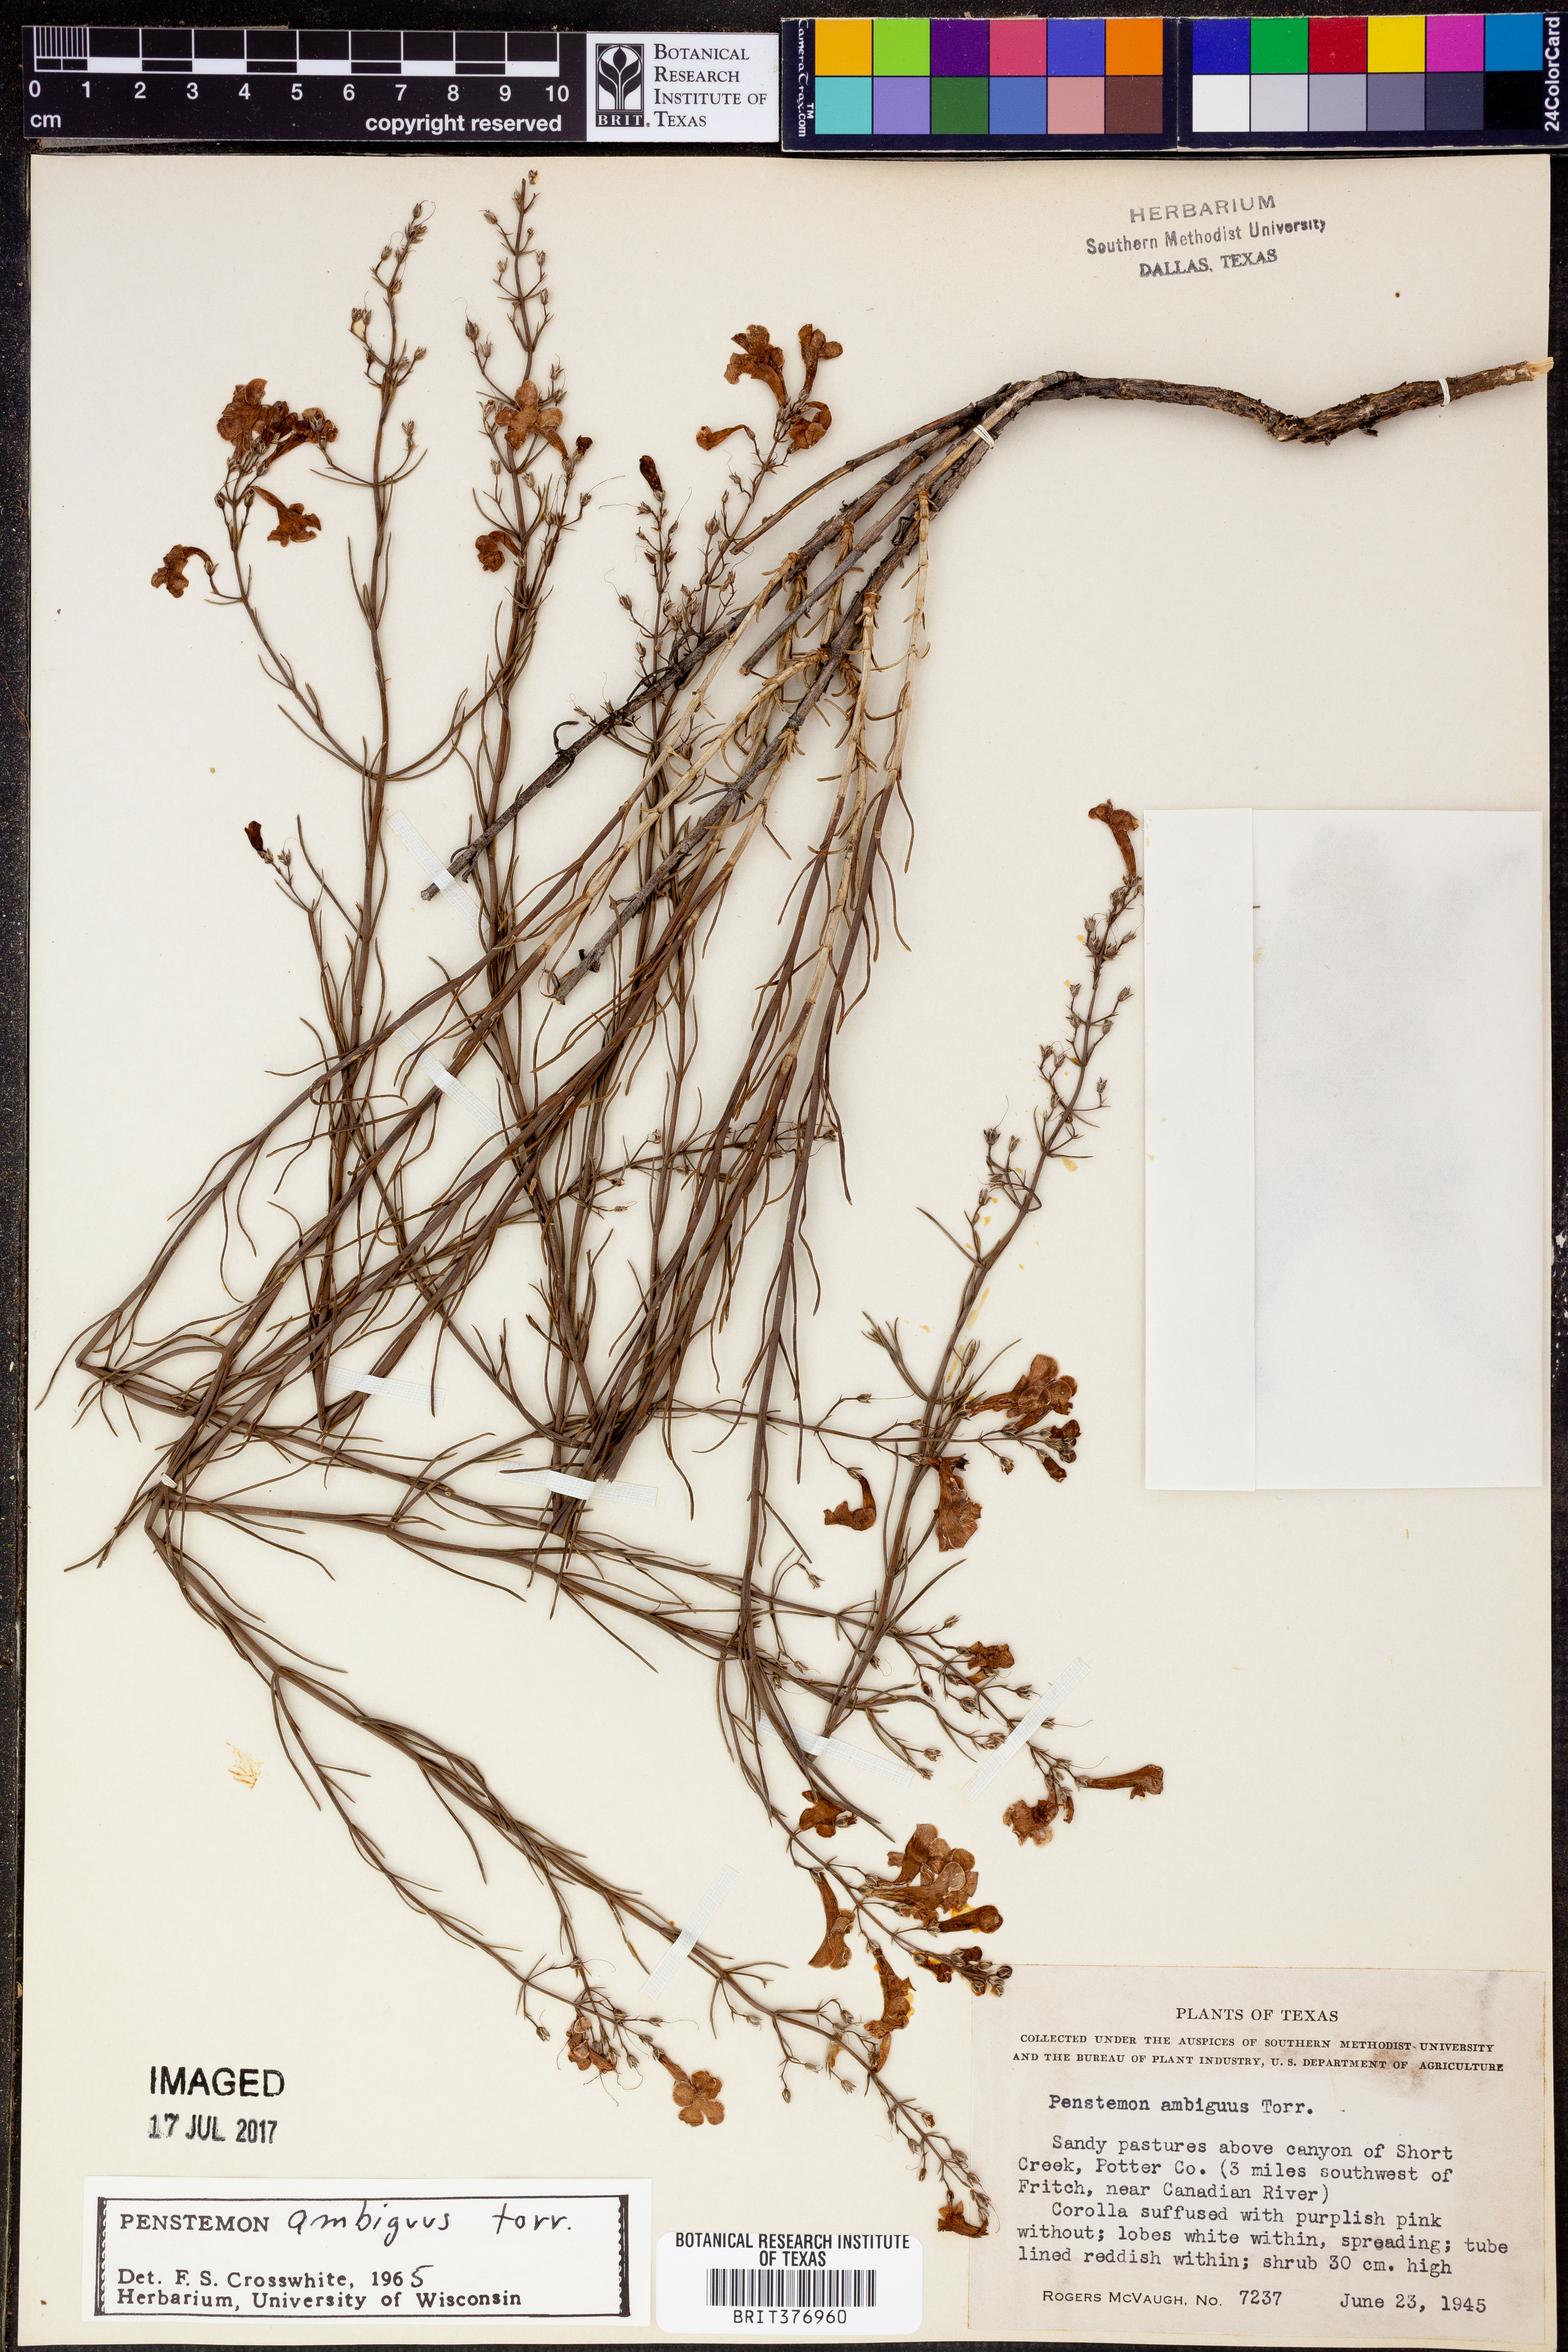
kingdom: Plantae
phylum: Tracheophyta
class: Magnoliopsida
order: Lamiales
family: Plantaginaceae
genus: Penstemon
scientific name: Penstemon ambiguus
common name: Bush penstemon
